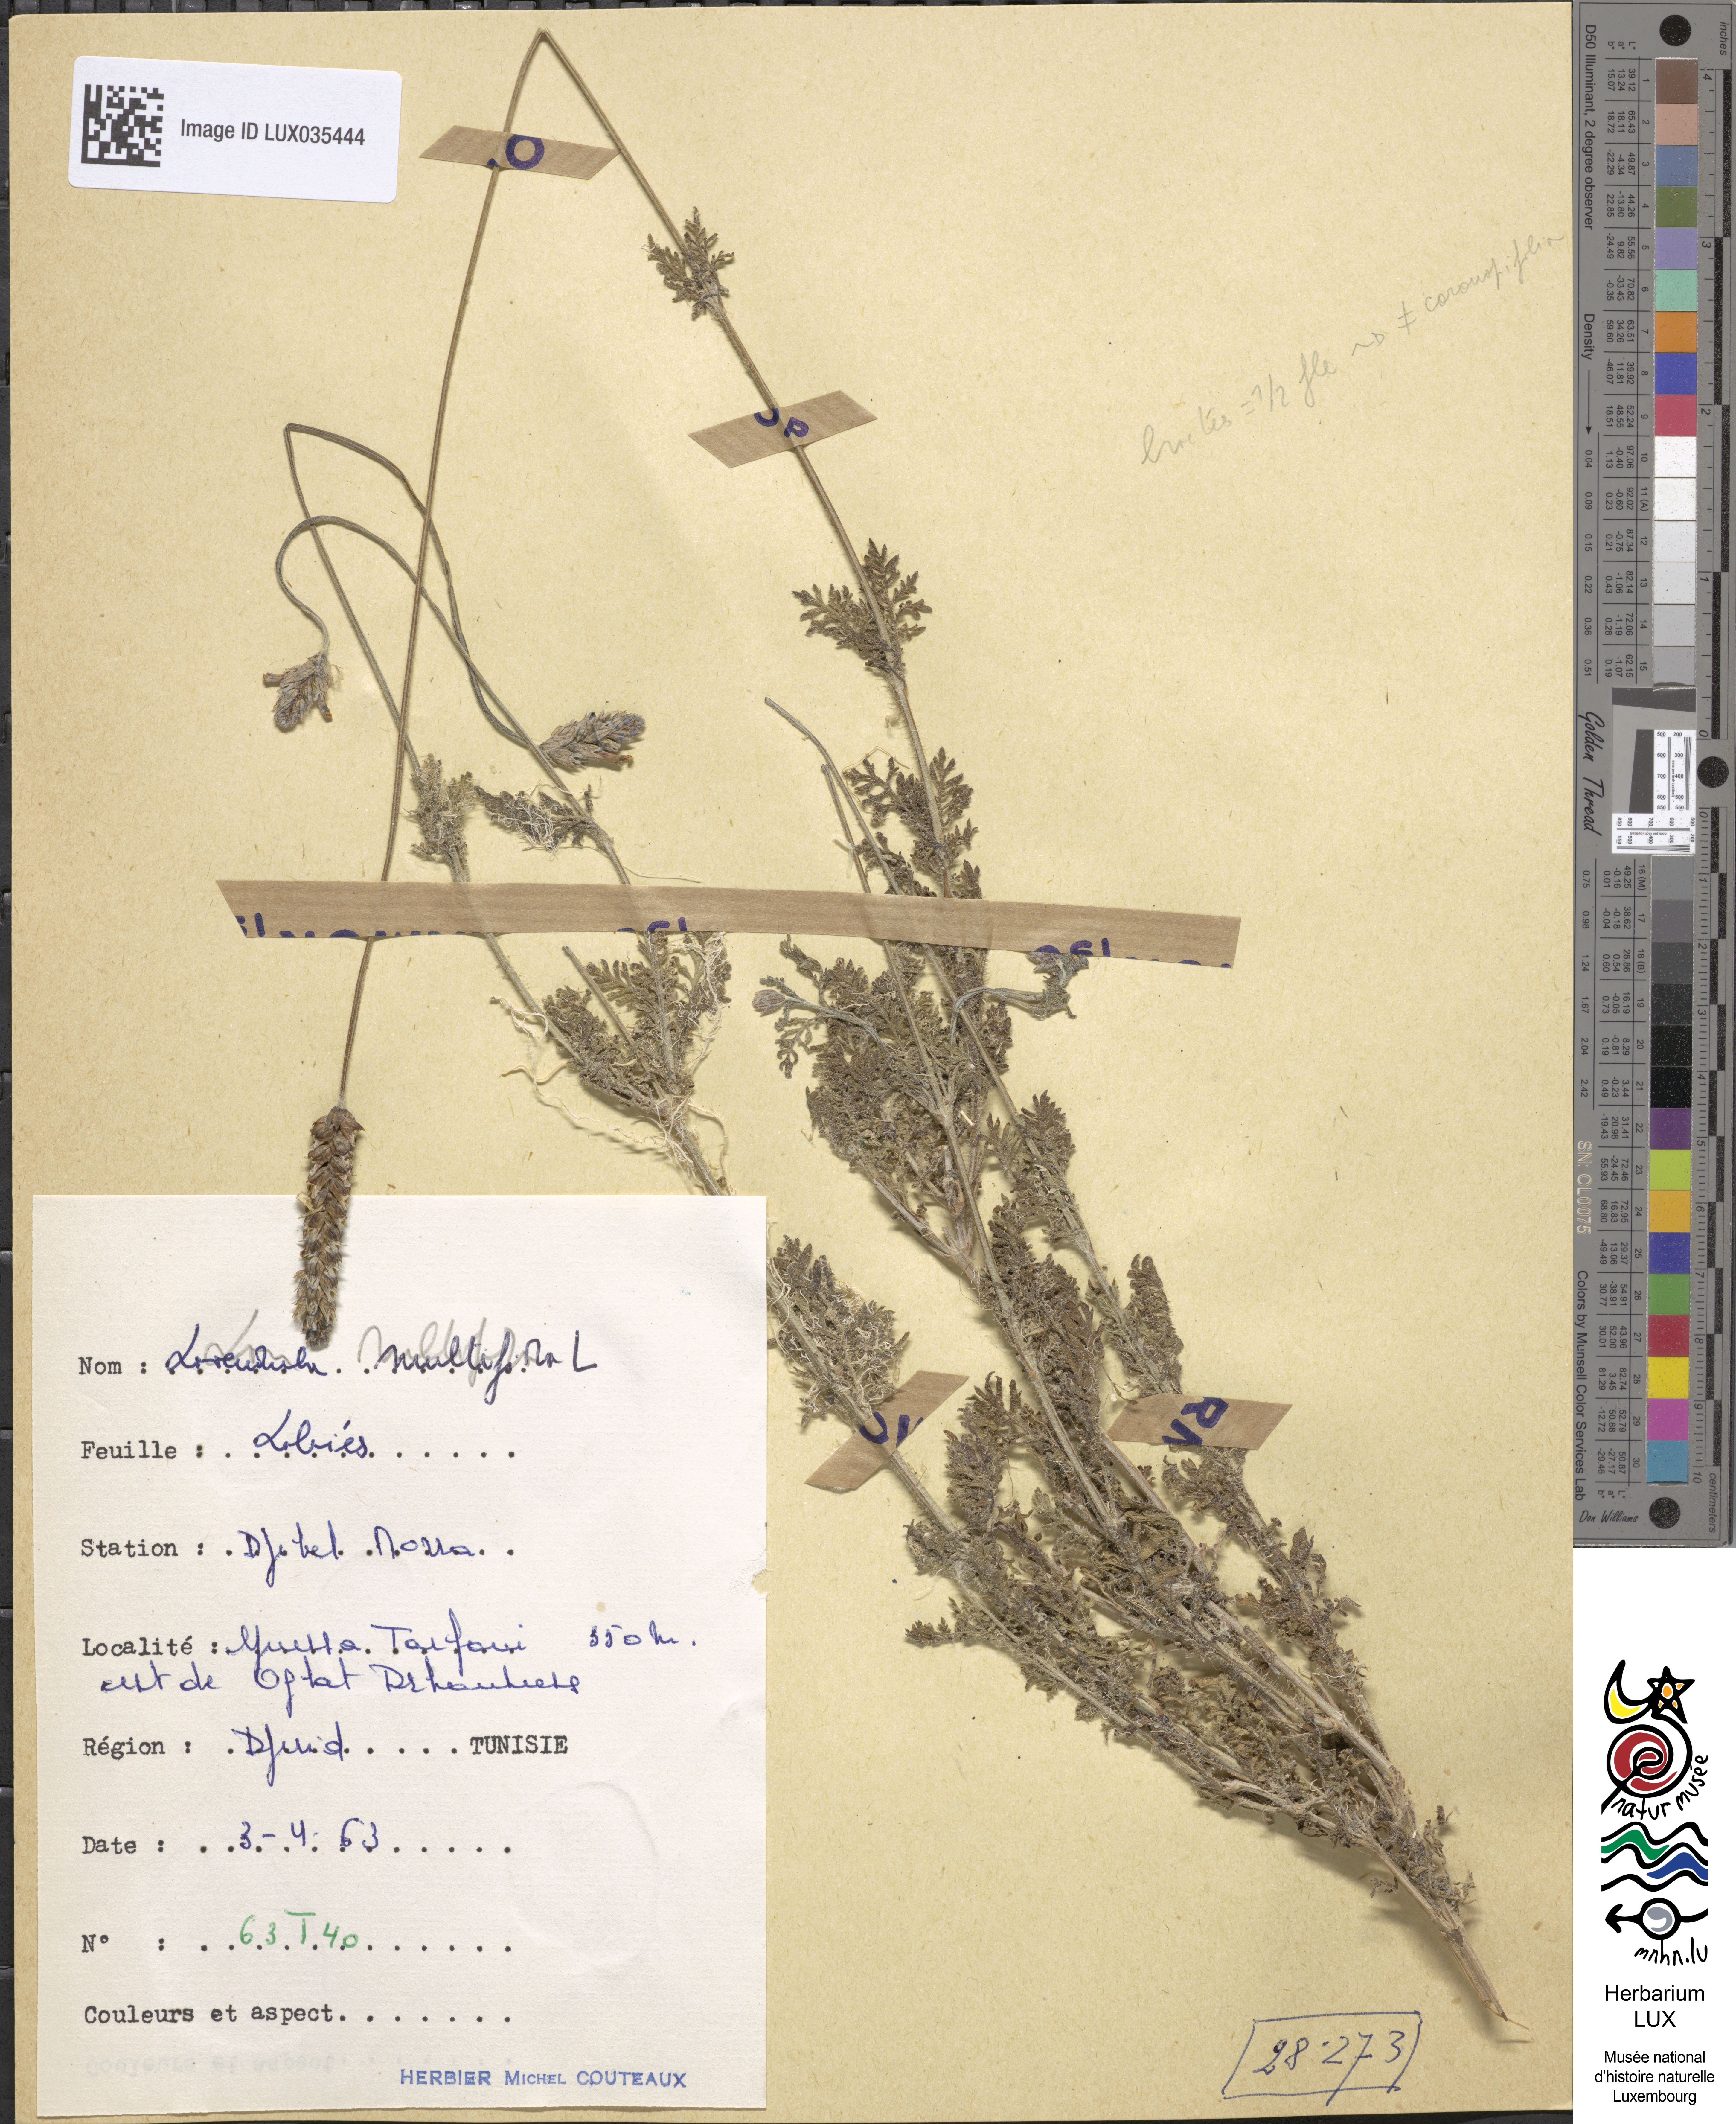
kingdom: Plantae
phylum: Tracheophyta
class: Magnoliopsida
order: Lamiales
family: Lamiaceae
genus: Lavandula
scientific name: Lavandula multifida
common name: Fern-leaf lavender
